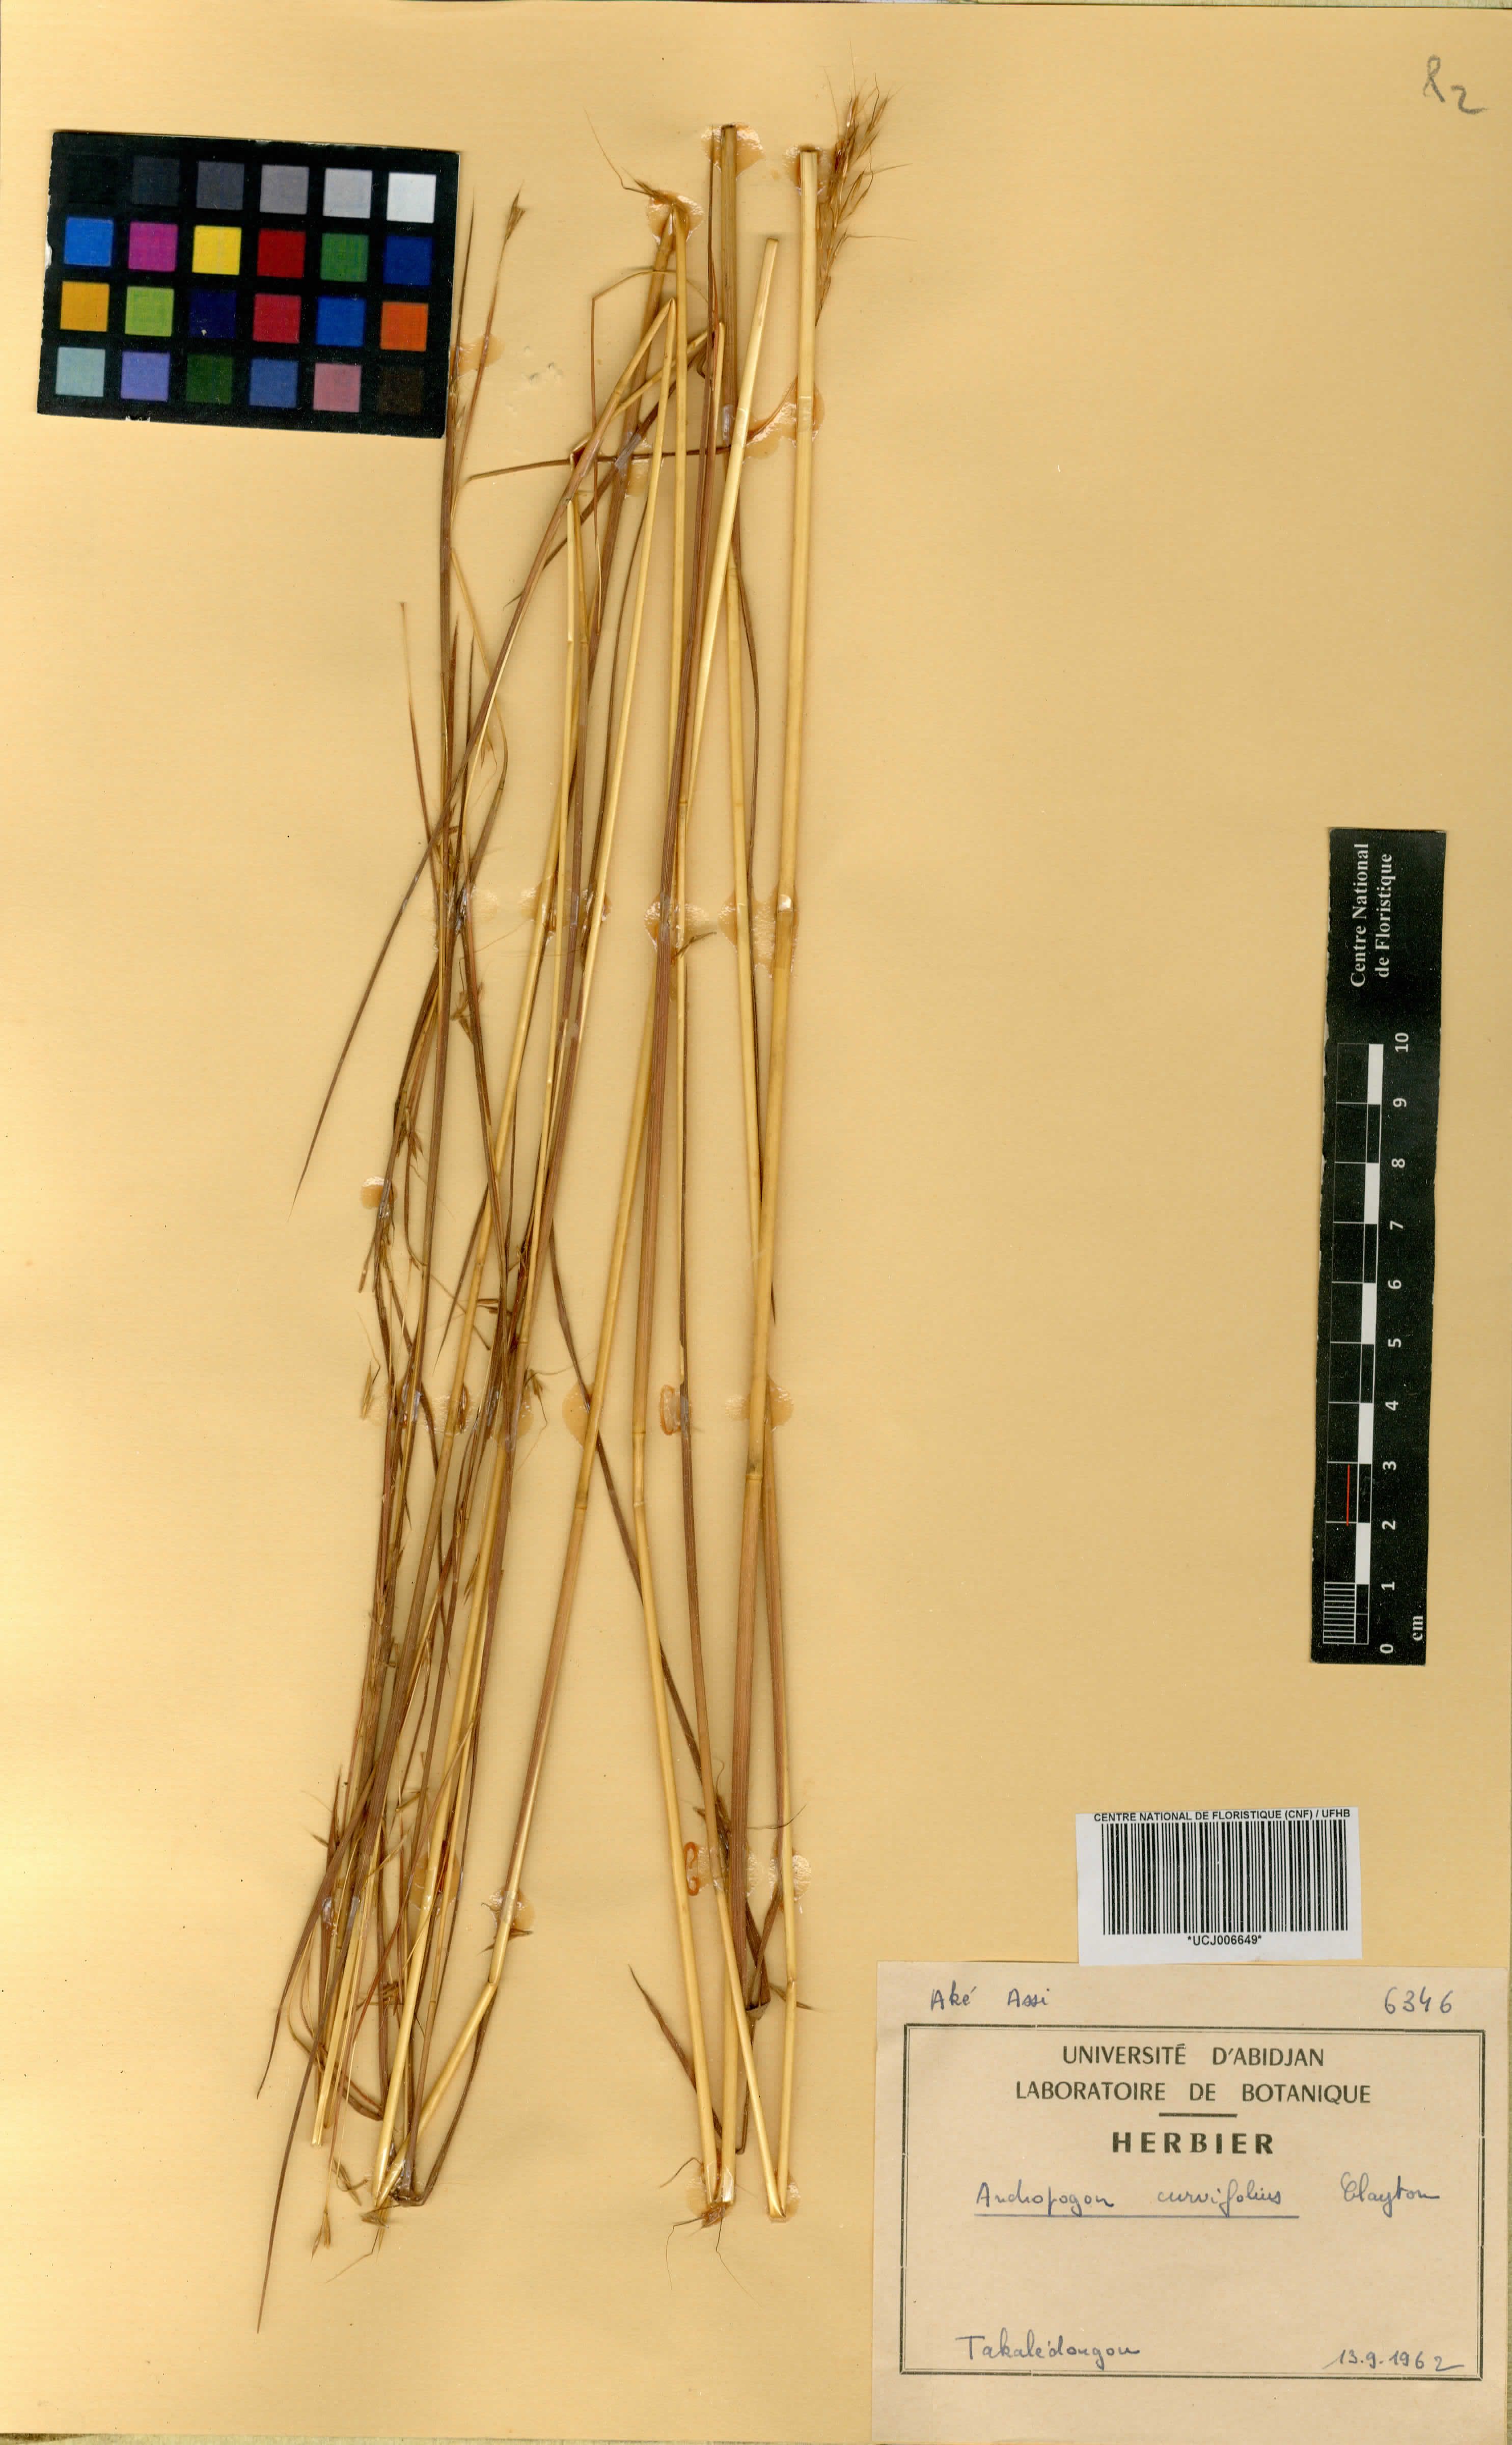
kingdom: Plantae
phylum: Tracheophyta
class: Liliopsida
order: Poales
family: Poaceae
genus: Andropogon
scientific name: Andropogon curvifolius
